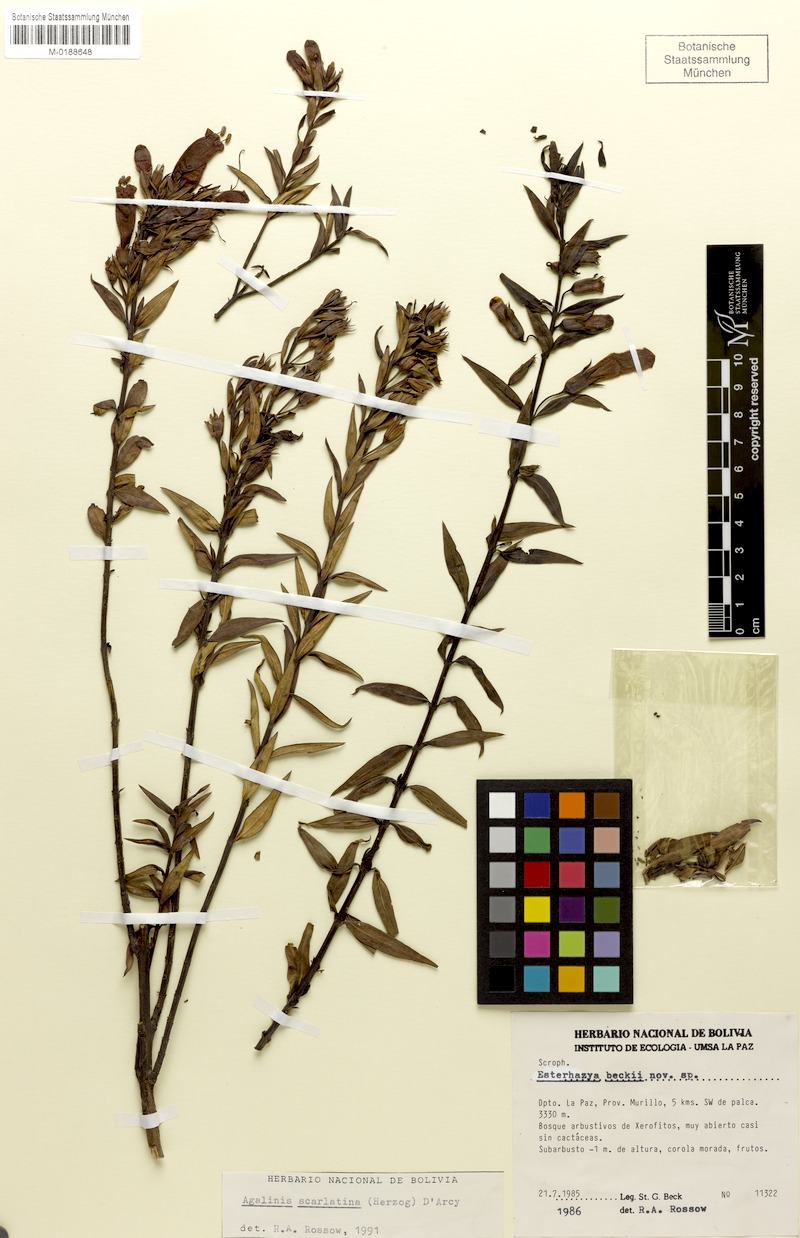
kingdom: Plantae
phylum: Tracheophyta
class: Magnoliopsida
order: Lamiales
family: Orobanchaceae
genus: Agalinis
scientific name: Agalinis scarlatina
